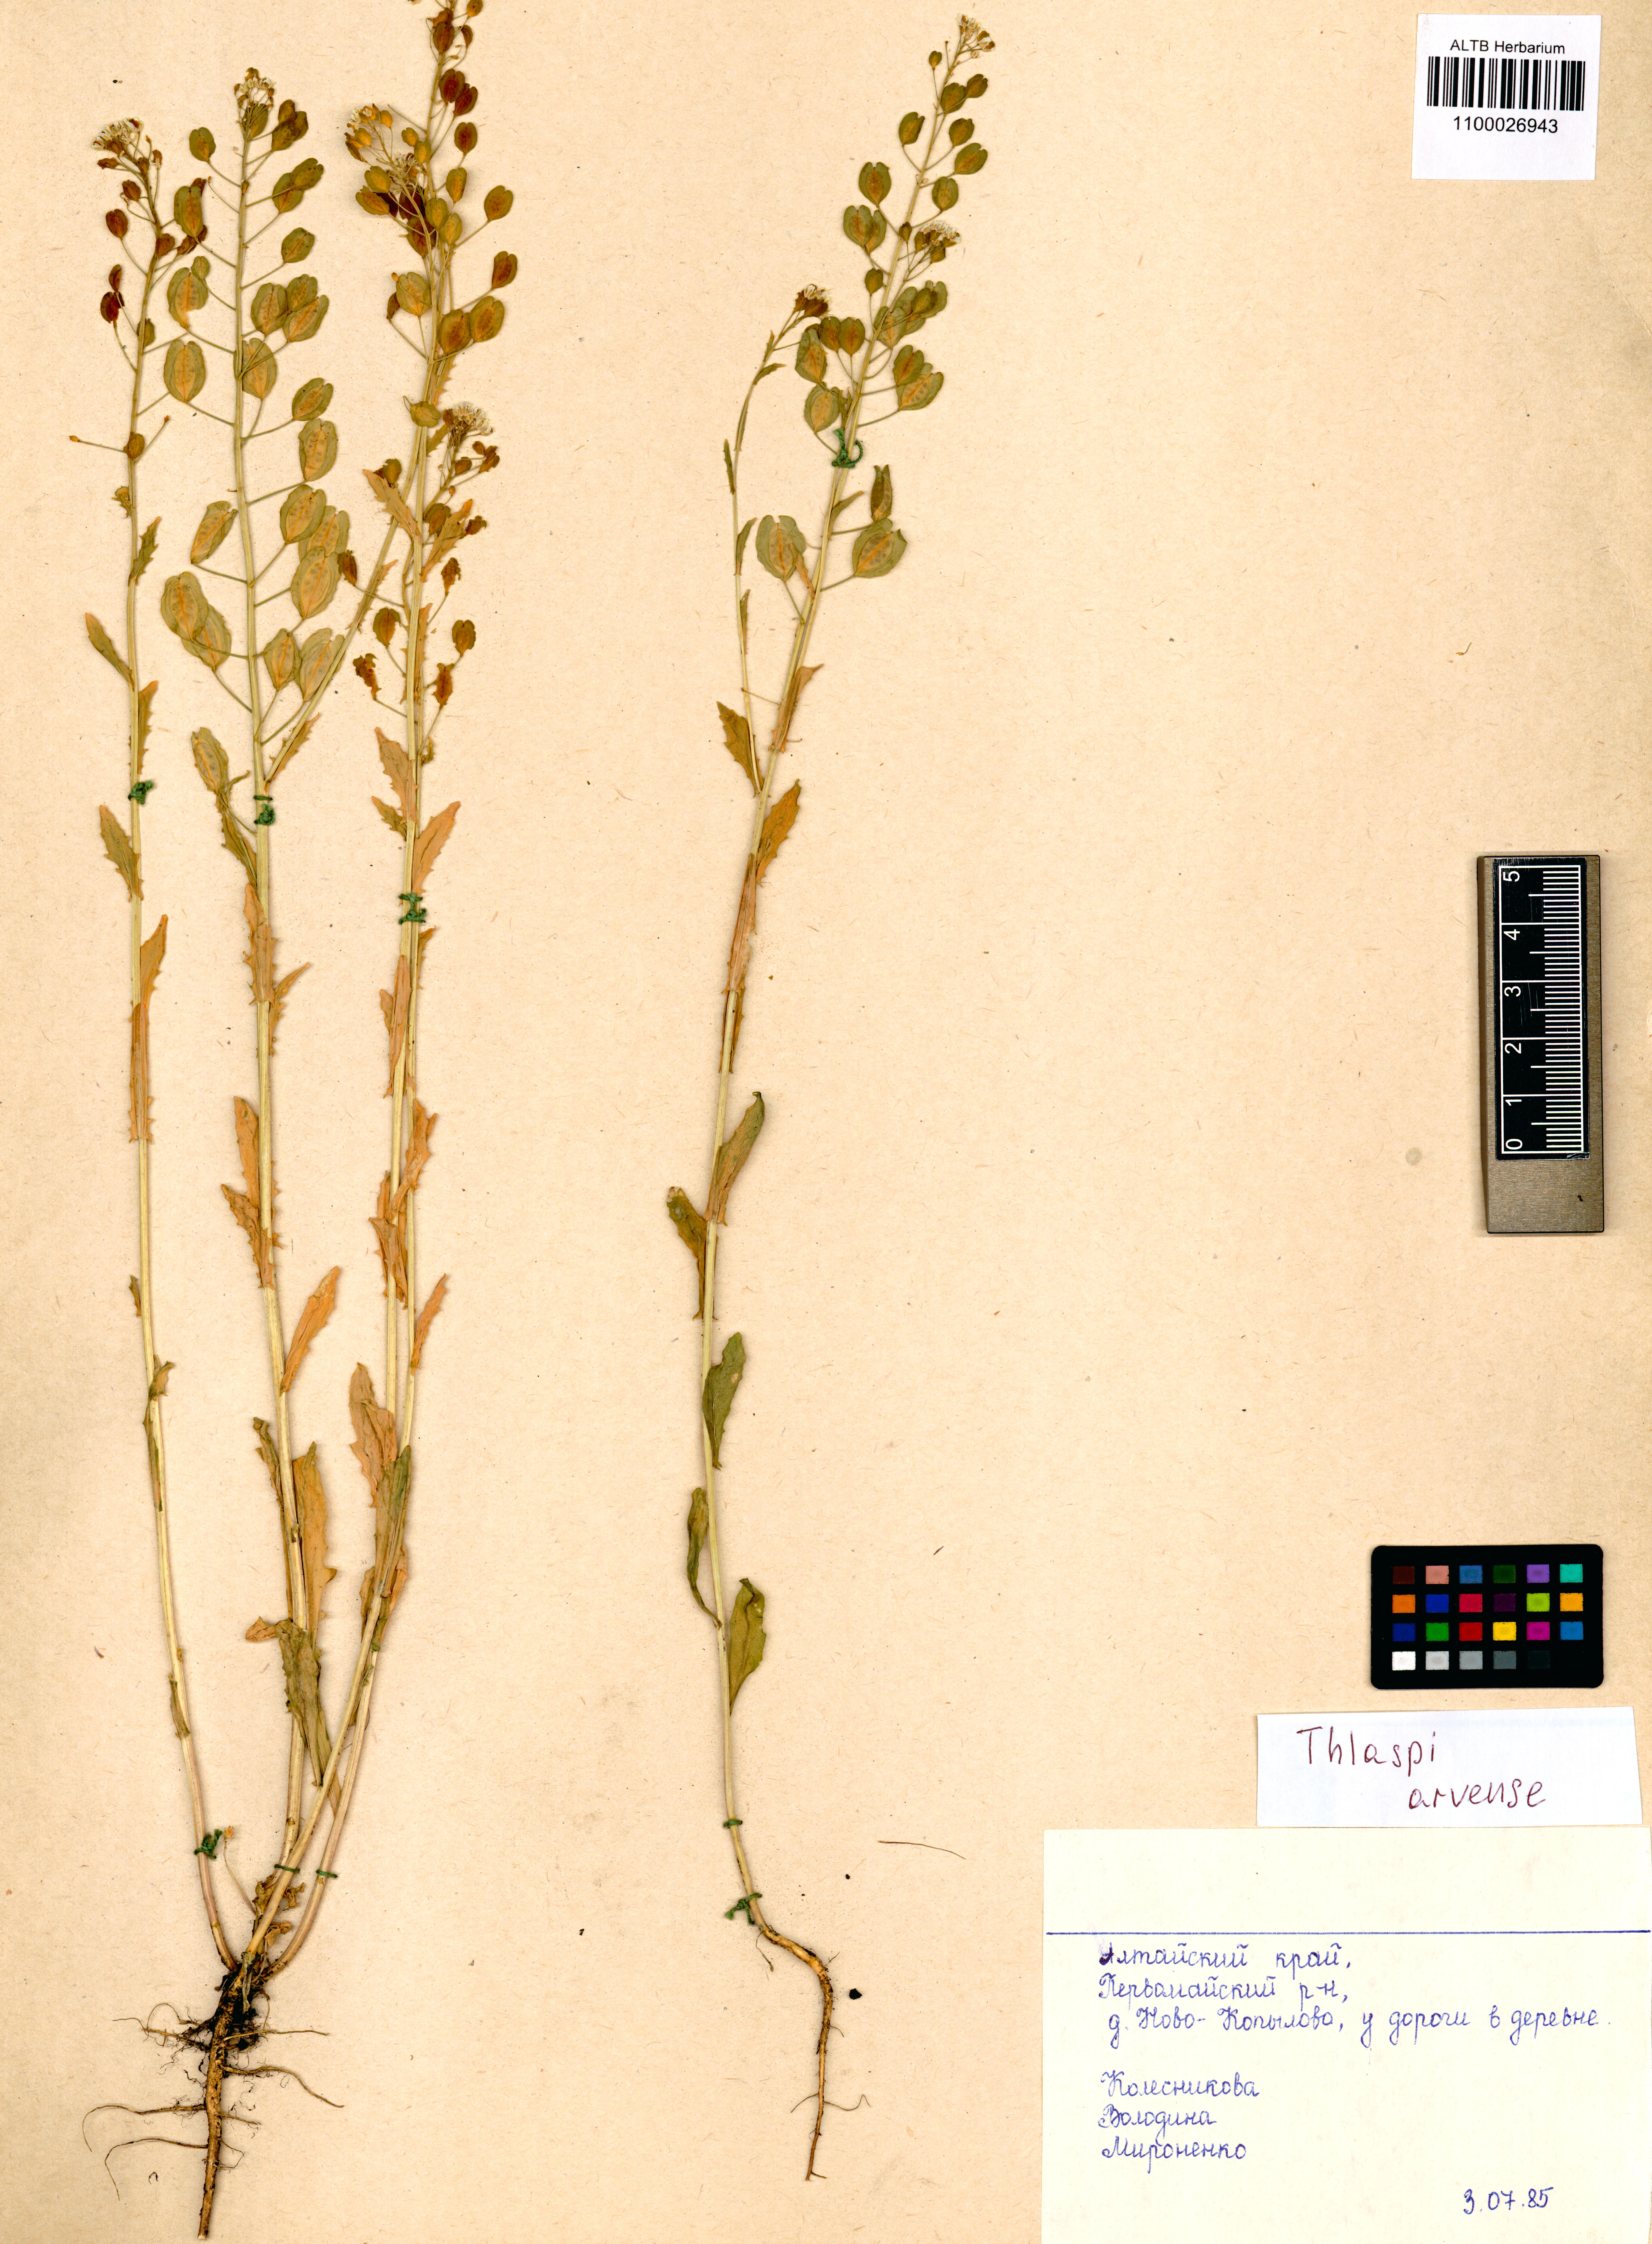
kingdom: Plantae
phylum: Tracheophyta
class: Magnoliopsida
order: Brassicales
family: Brassicaceae
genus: Thlaspi
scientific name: Thlaspi arvense
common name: Field pennycress
